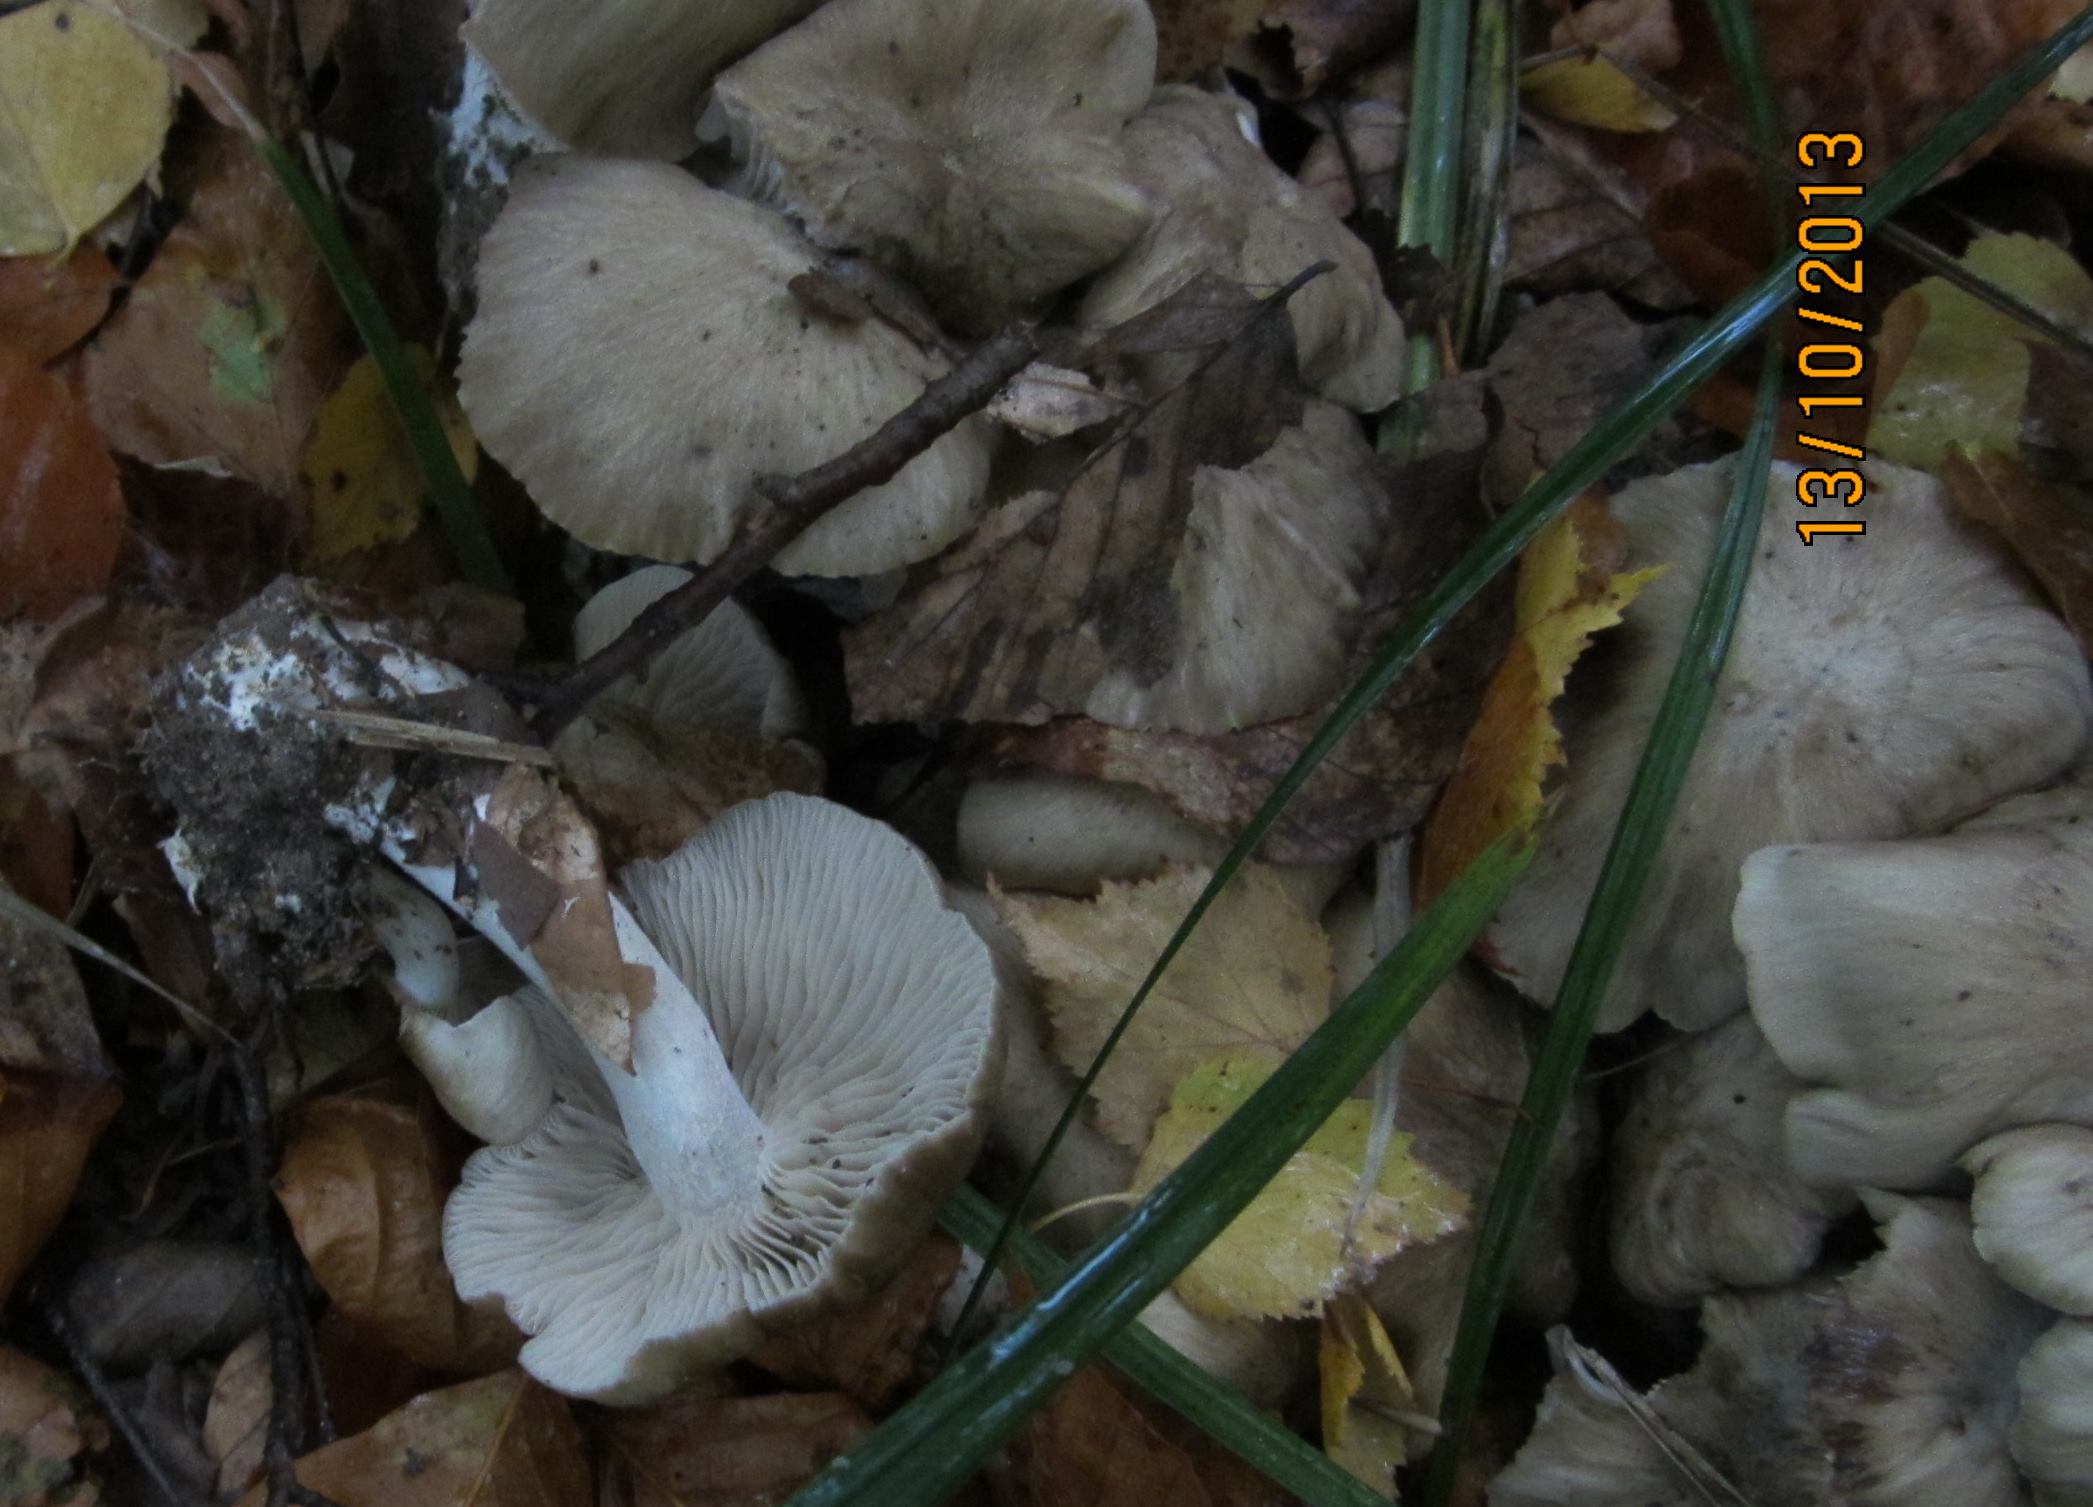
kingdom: Fungi
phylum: Basidiomycota
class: Agaricomycetes
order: Agaricales
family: Lyophyllaceae
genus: Lyophyllum
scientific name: Lyophyllum decastes
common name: røggrå gråblad
